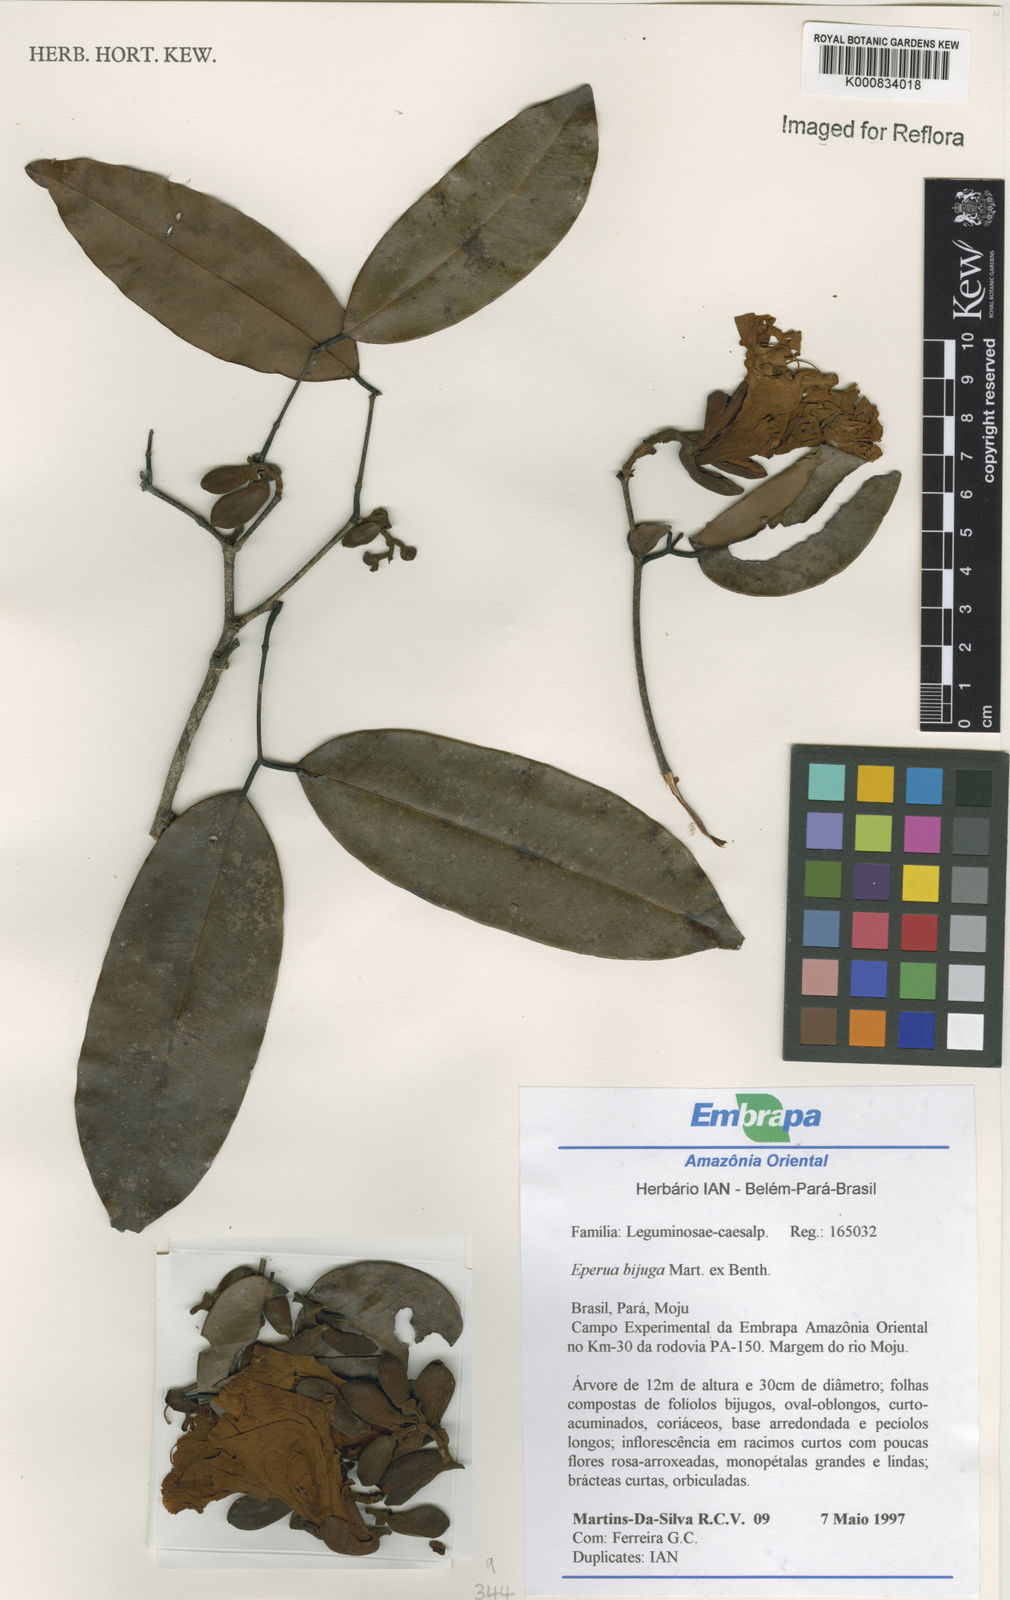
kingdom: Plantae
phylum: Tracheophyta
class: Magnoliopsida
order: Fabales
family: Fabaceae
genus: Eperua
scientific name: Eperua bijuga
